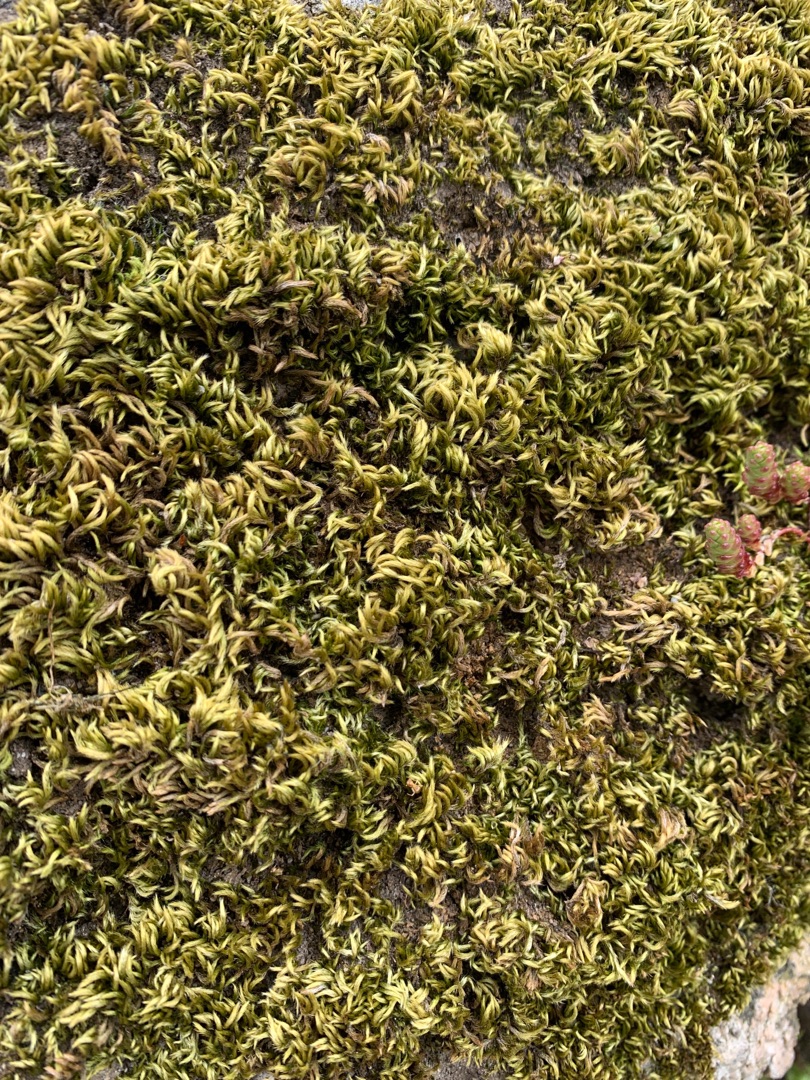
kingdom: Plantae
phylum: Bryophyta
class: Bryopsida
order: Hypnales
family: Brachytheciaceae
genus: Homalothecium
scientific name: Homalothecium sericeum
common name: Krybende silkemos
